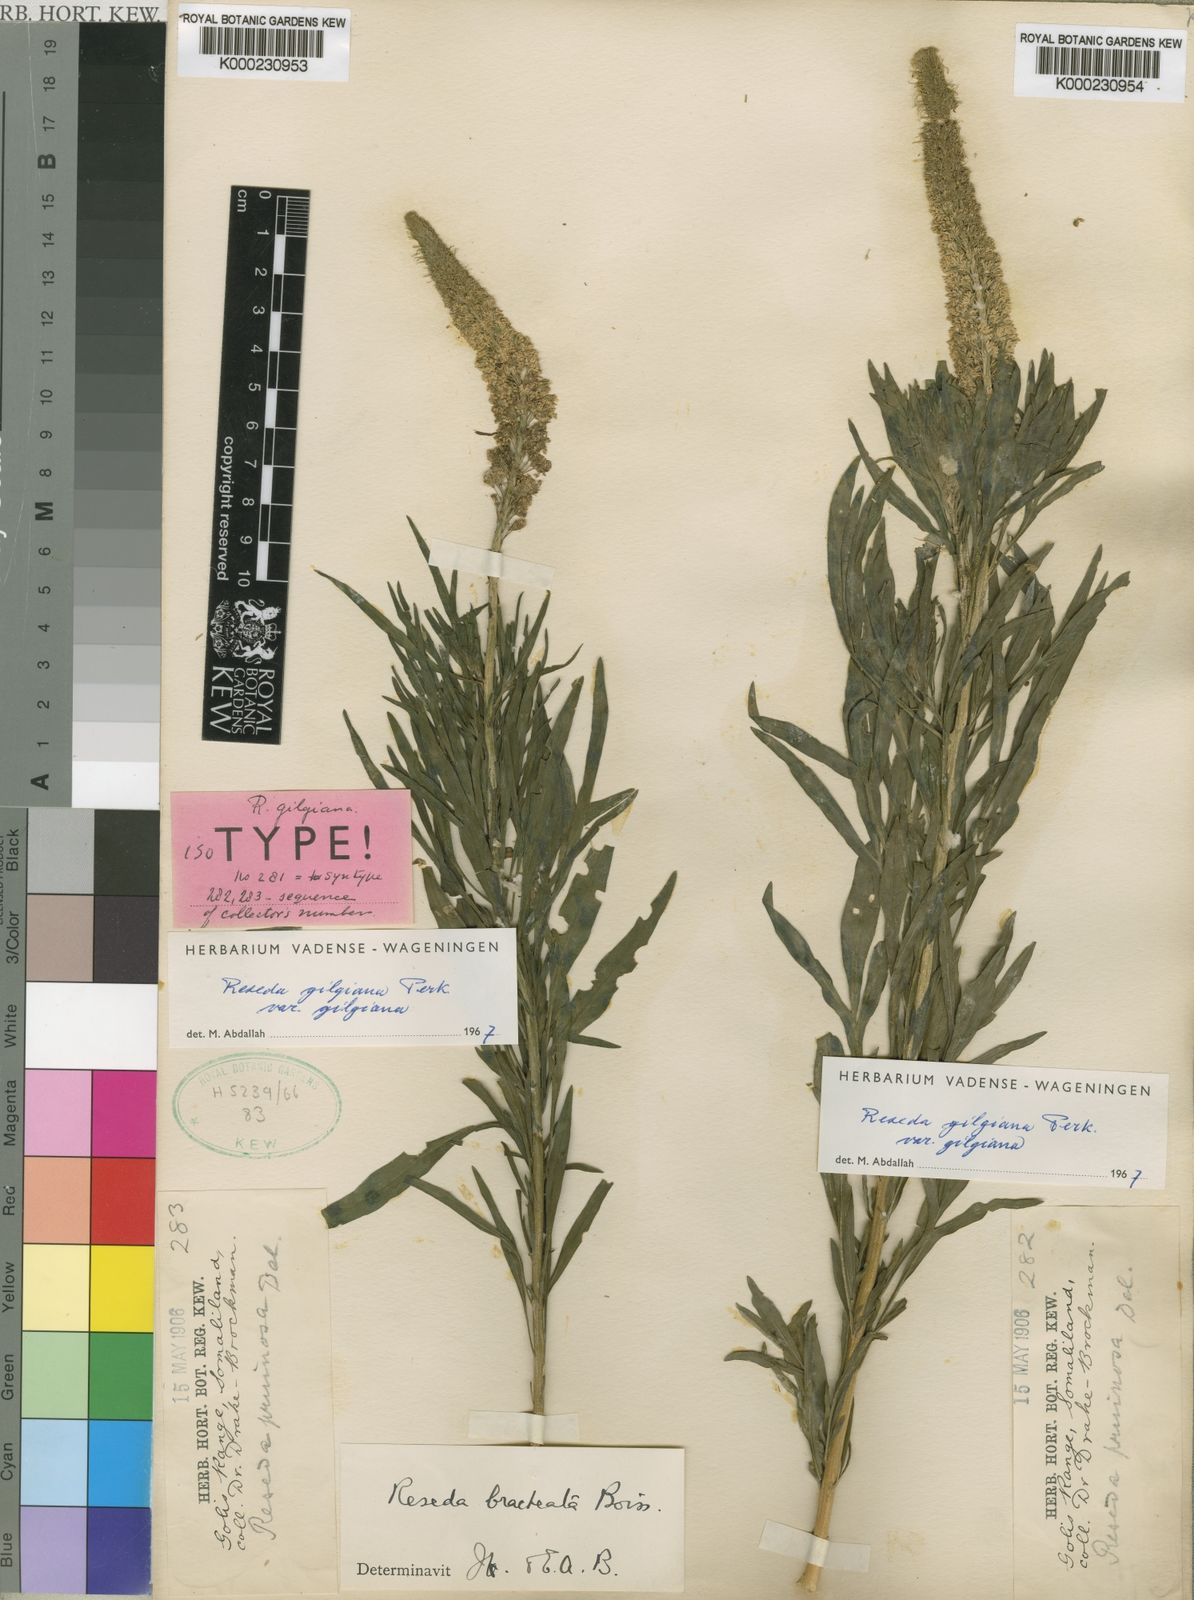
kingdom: Plantae
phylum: Tracheophyta
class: Magnoliopsida
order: Brassicales
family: Resedaceae
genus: Reseda
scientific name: Reseda amblycarpa
